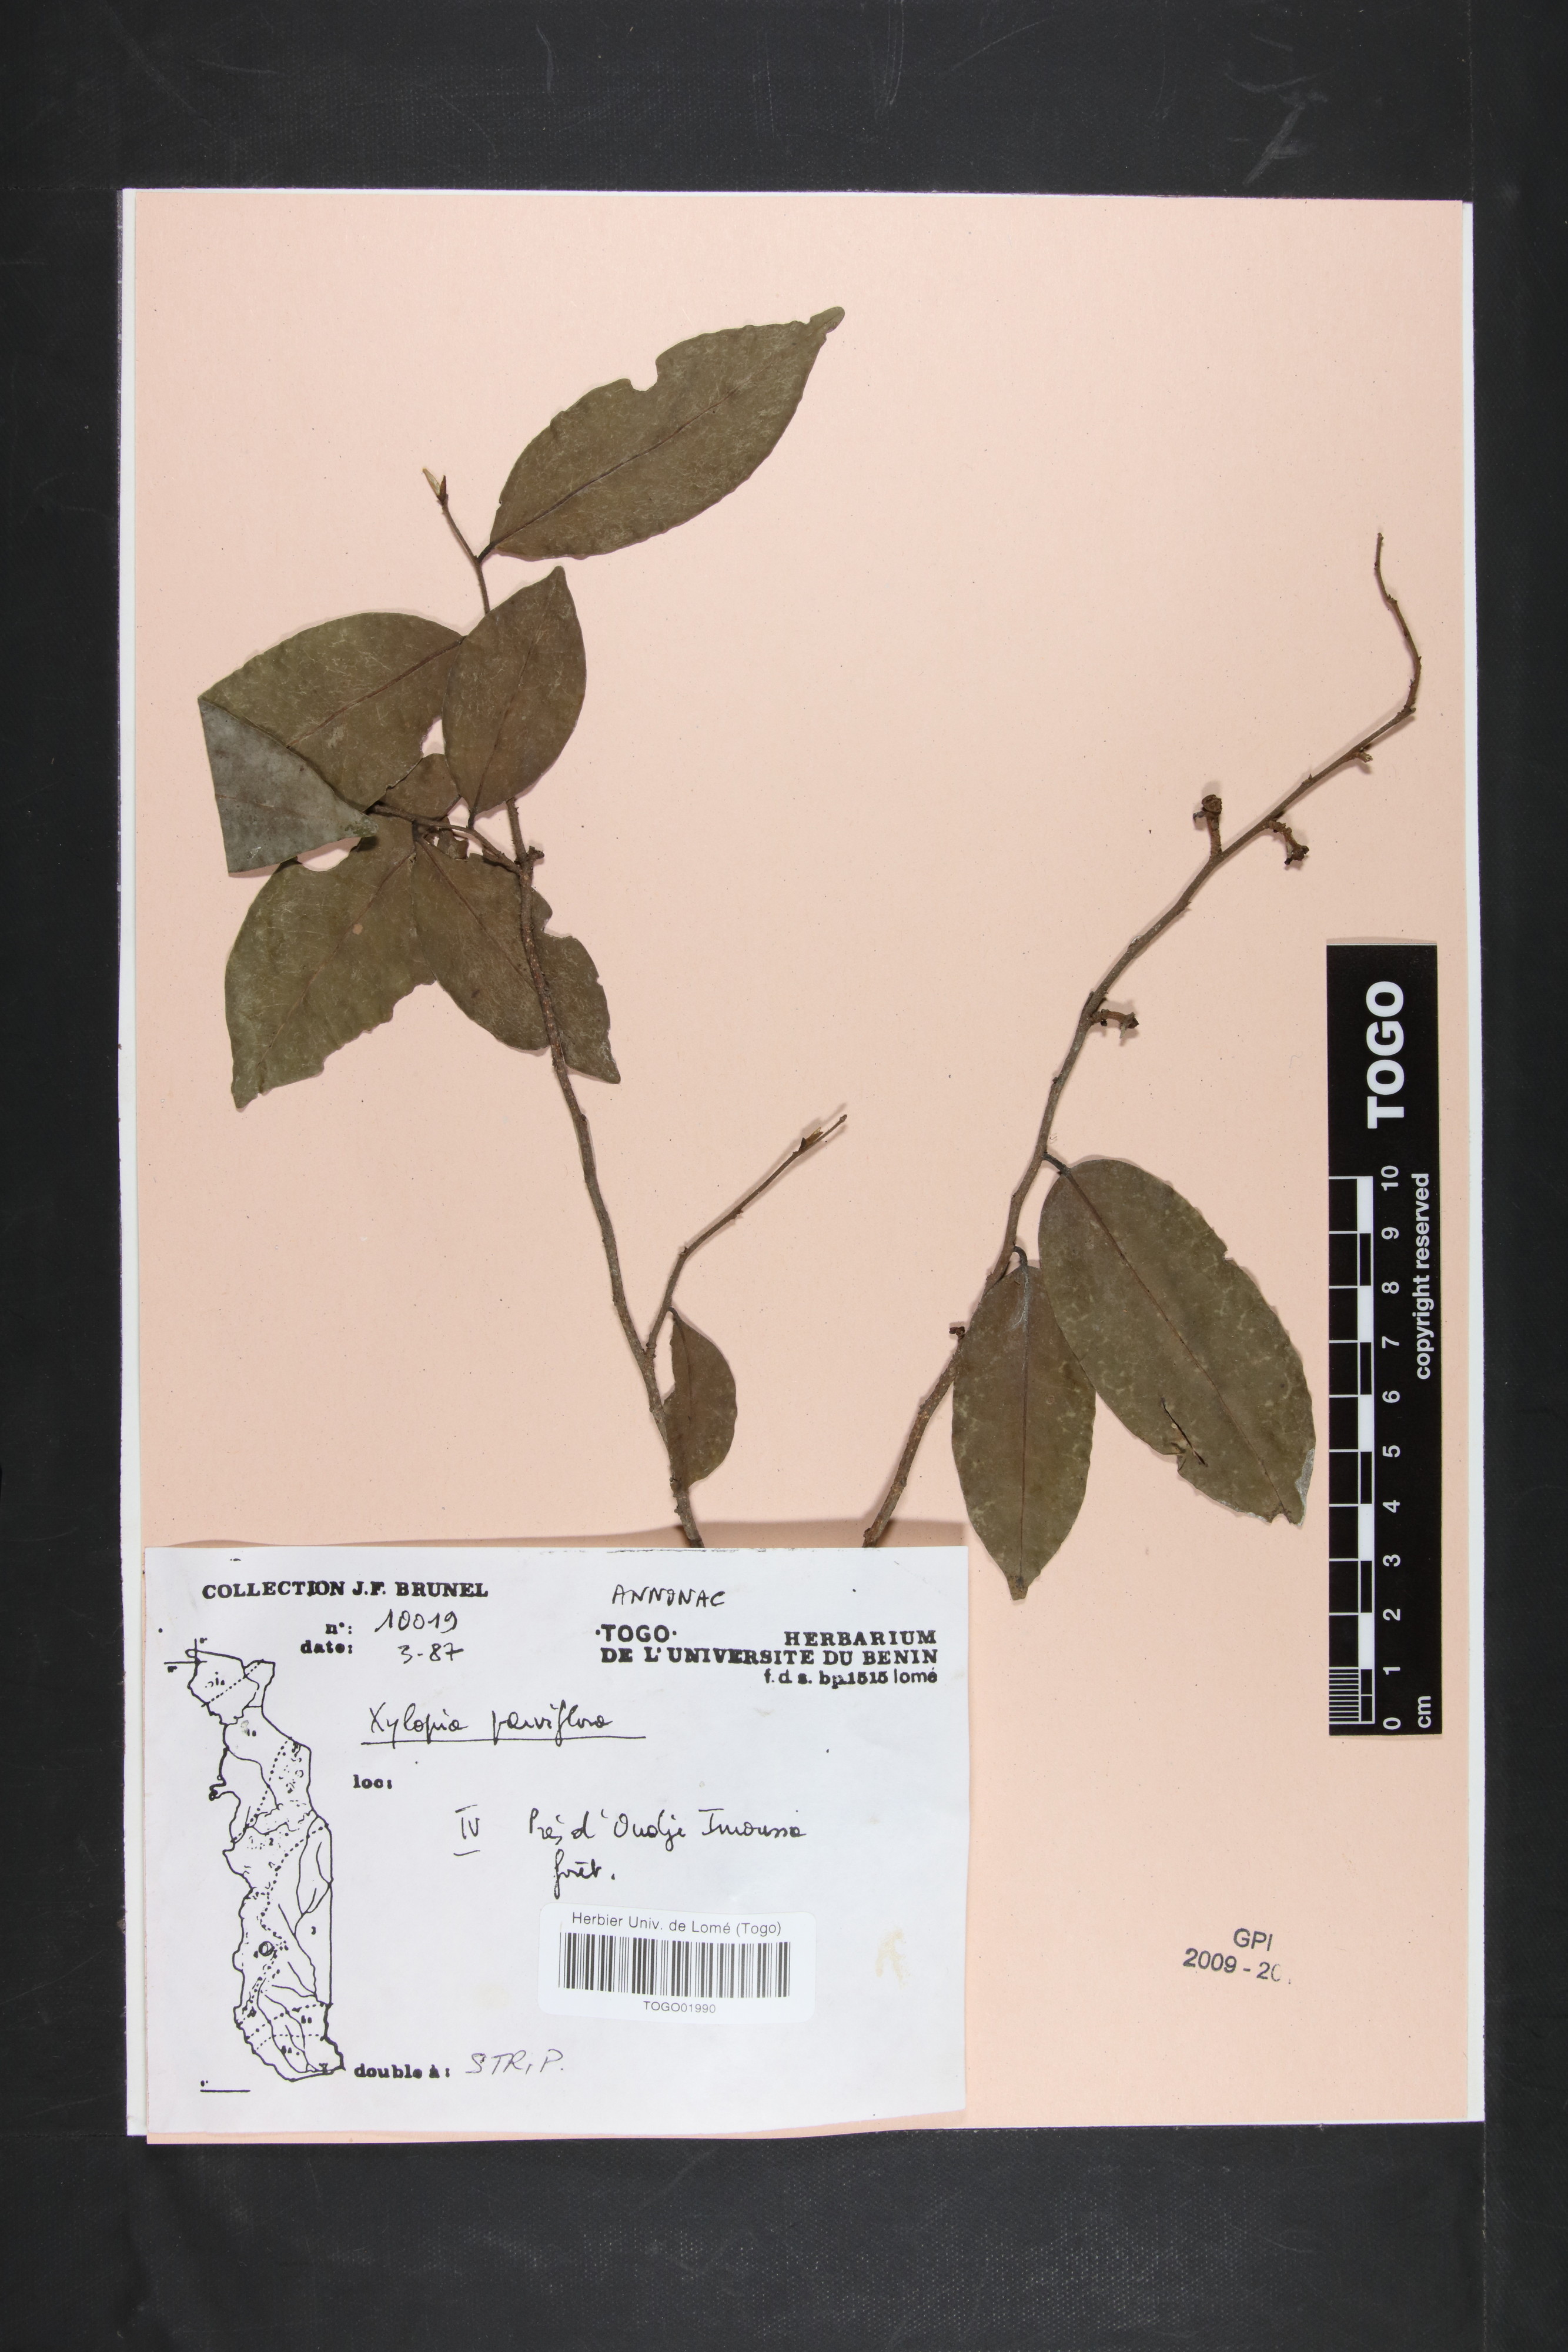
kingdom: Plantae
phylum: Tracheophyta
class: Magnoliopsida
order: Magnoliales
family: Annonaceae
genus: Xylopia
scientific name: Xylopia parviflora
